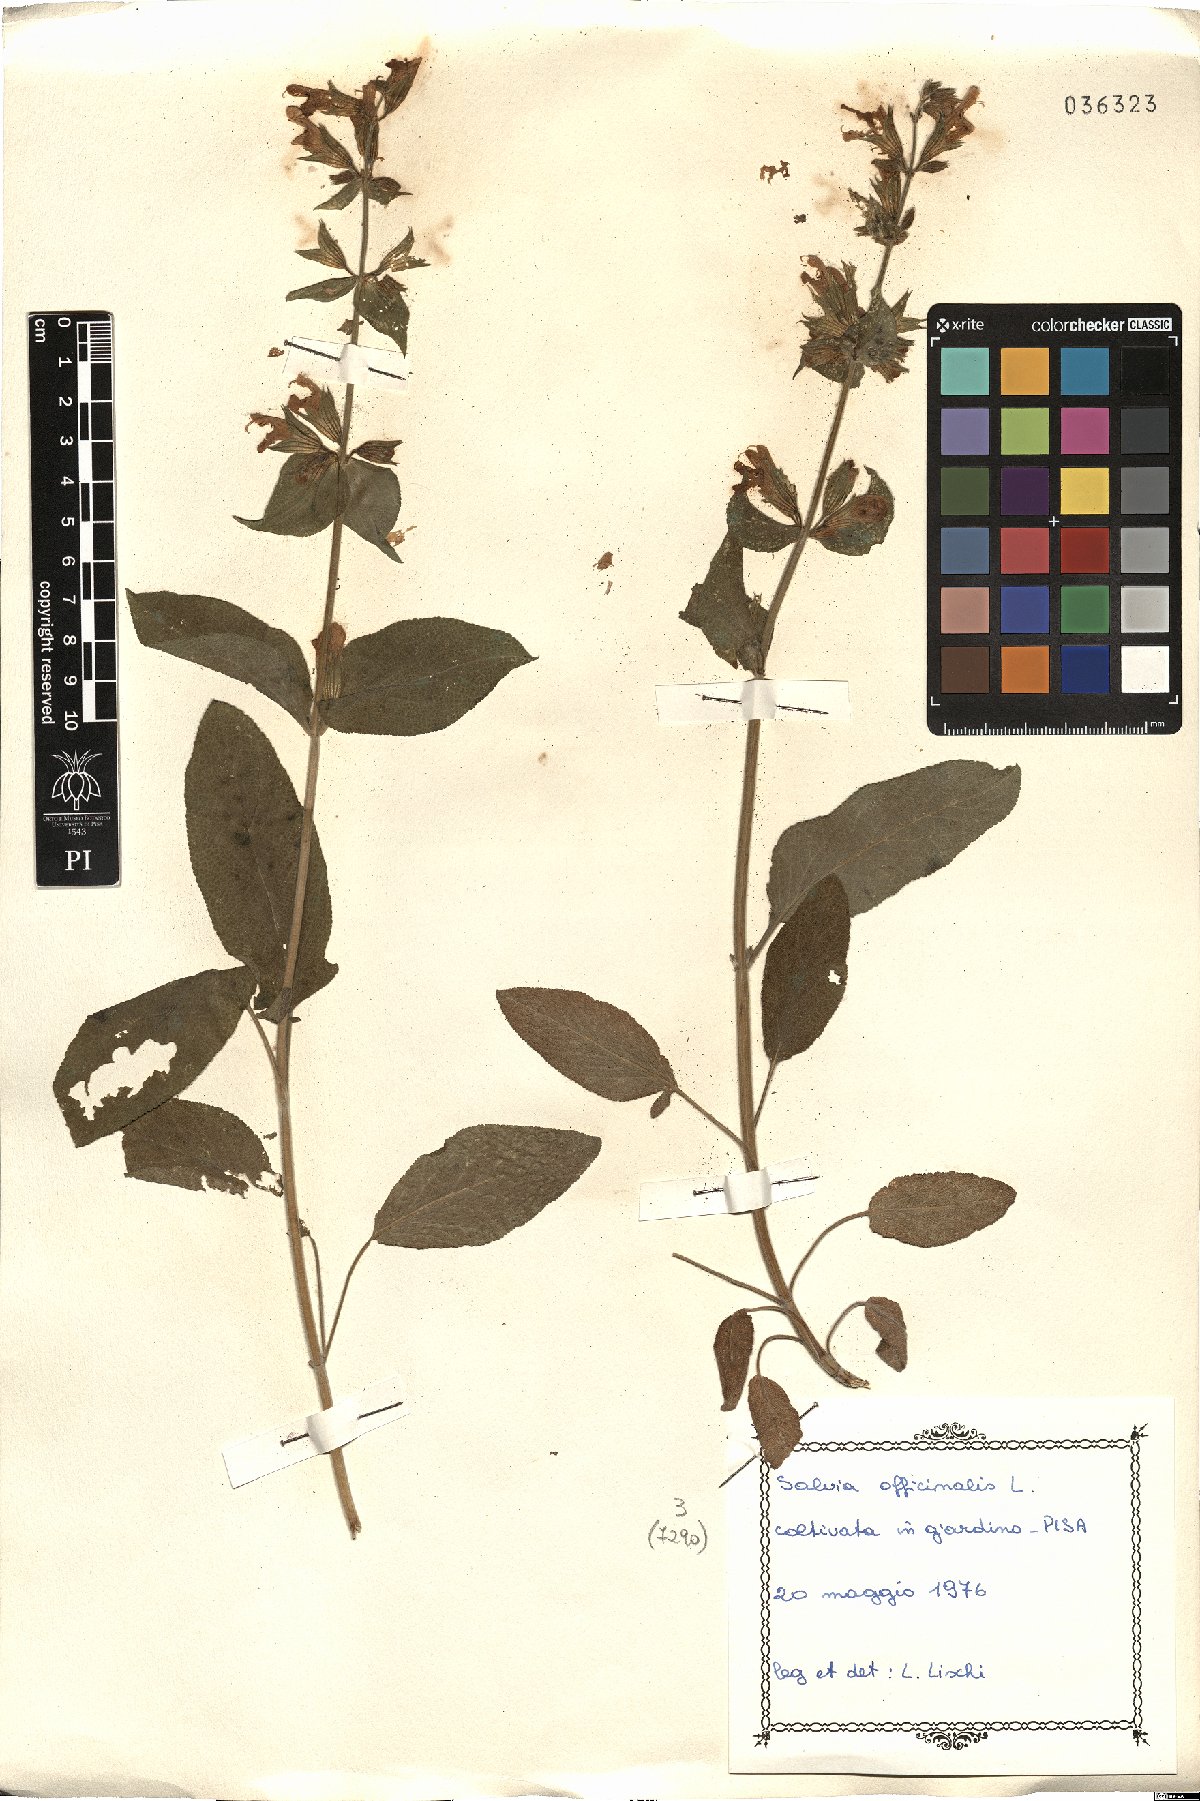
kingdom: Plantae
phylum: Tracheophyta
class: Magnoliopsida
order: Lamiales
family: Lamiaceae
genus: Salvia
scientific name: Salvia officinalis
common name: Sage
